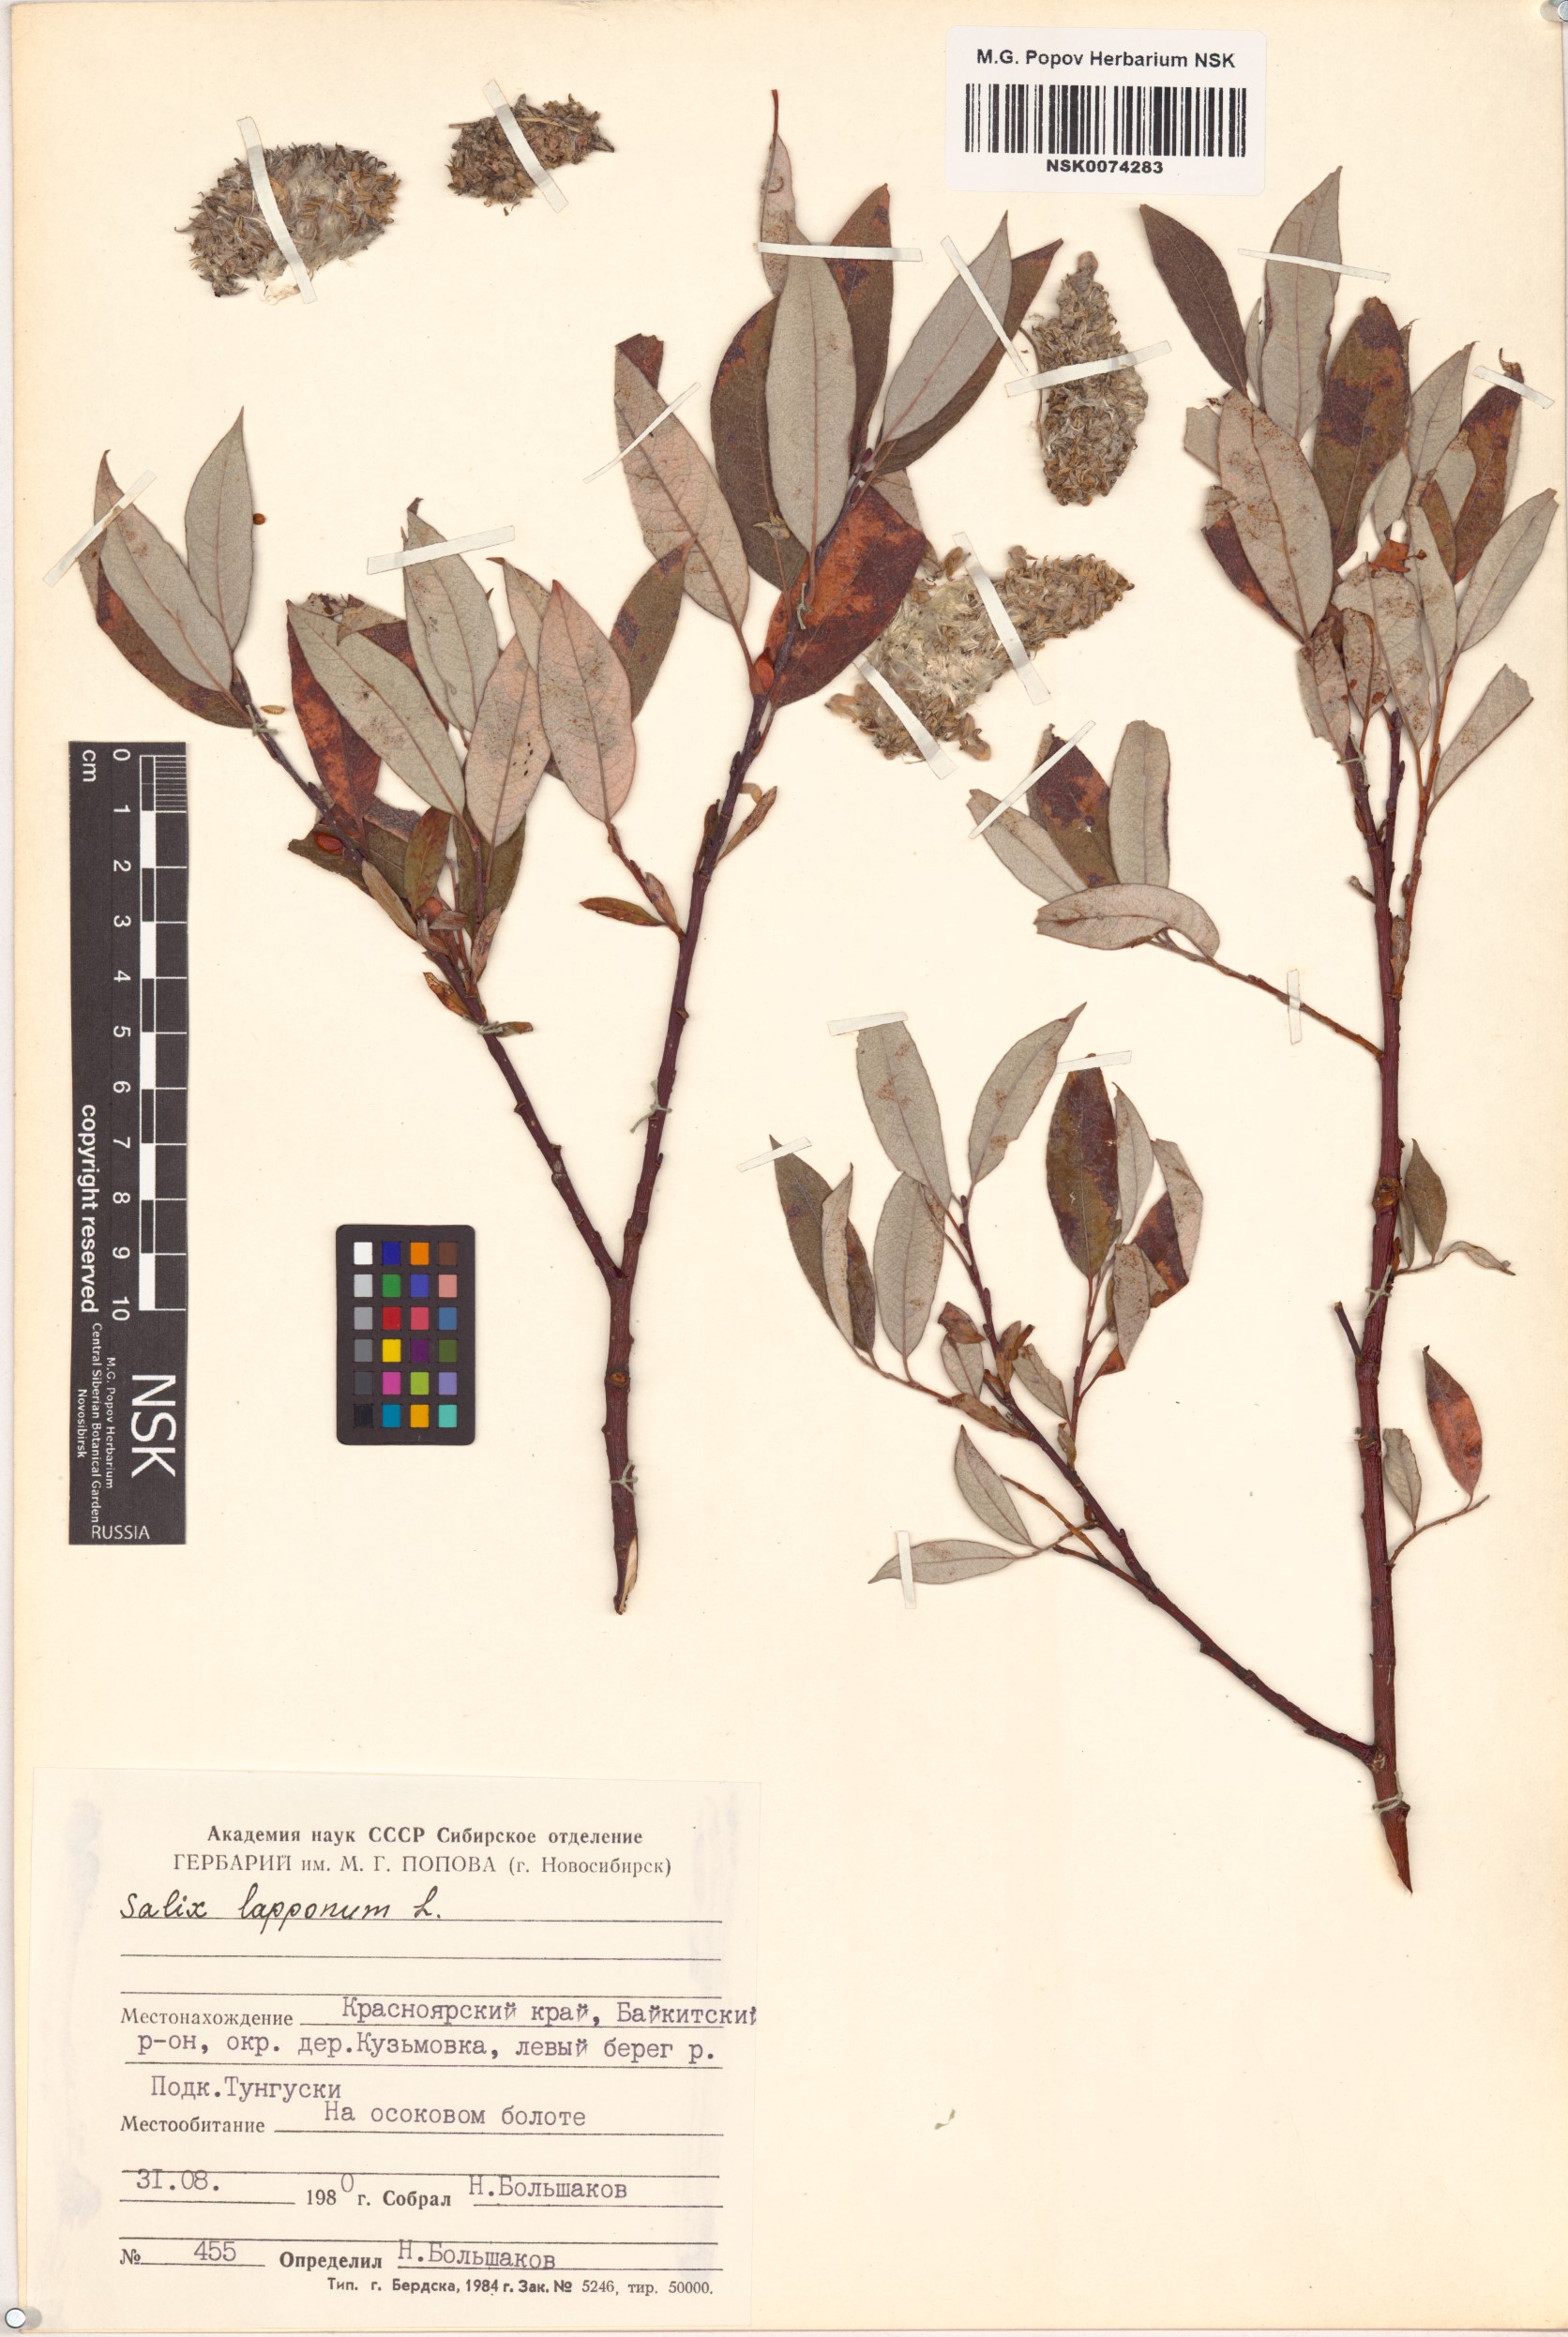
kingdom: Plantae
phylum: Tracheophyta
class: Magnoliopsida
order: Malpighiales
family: Salicaceae
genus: Salix
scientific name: Salix lapponum
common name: Downy willow
